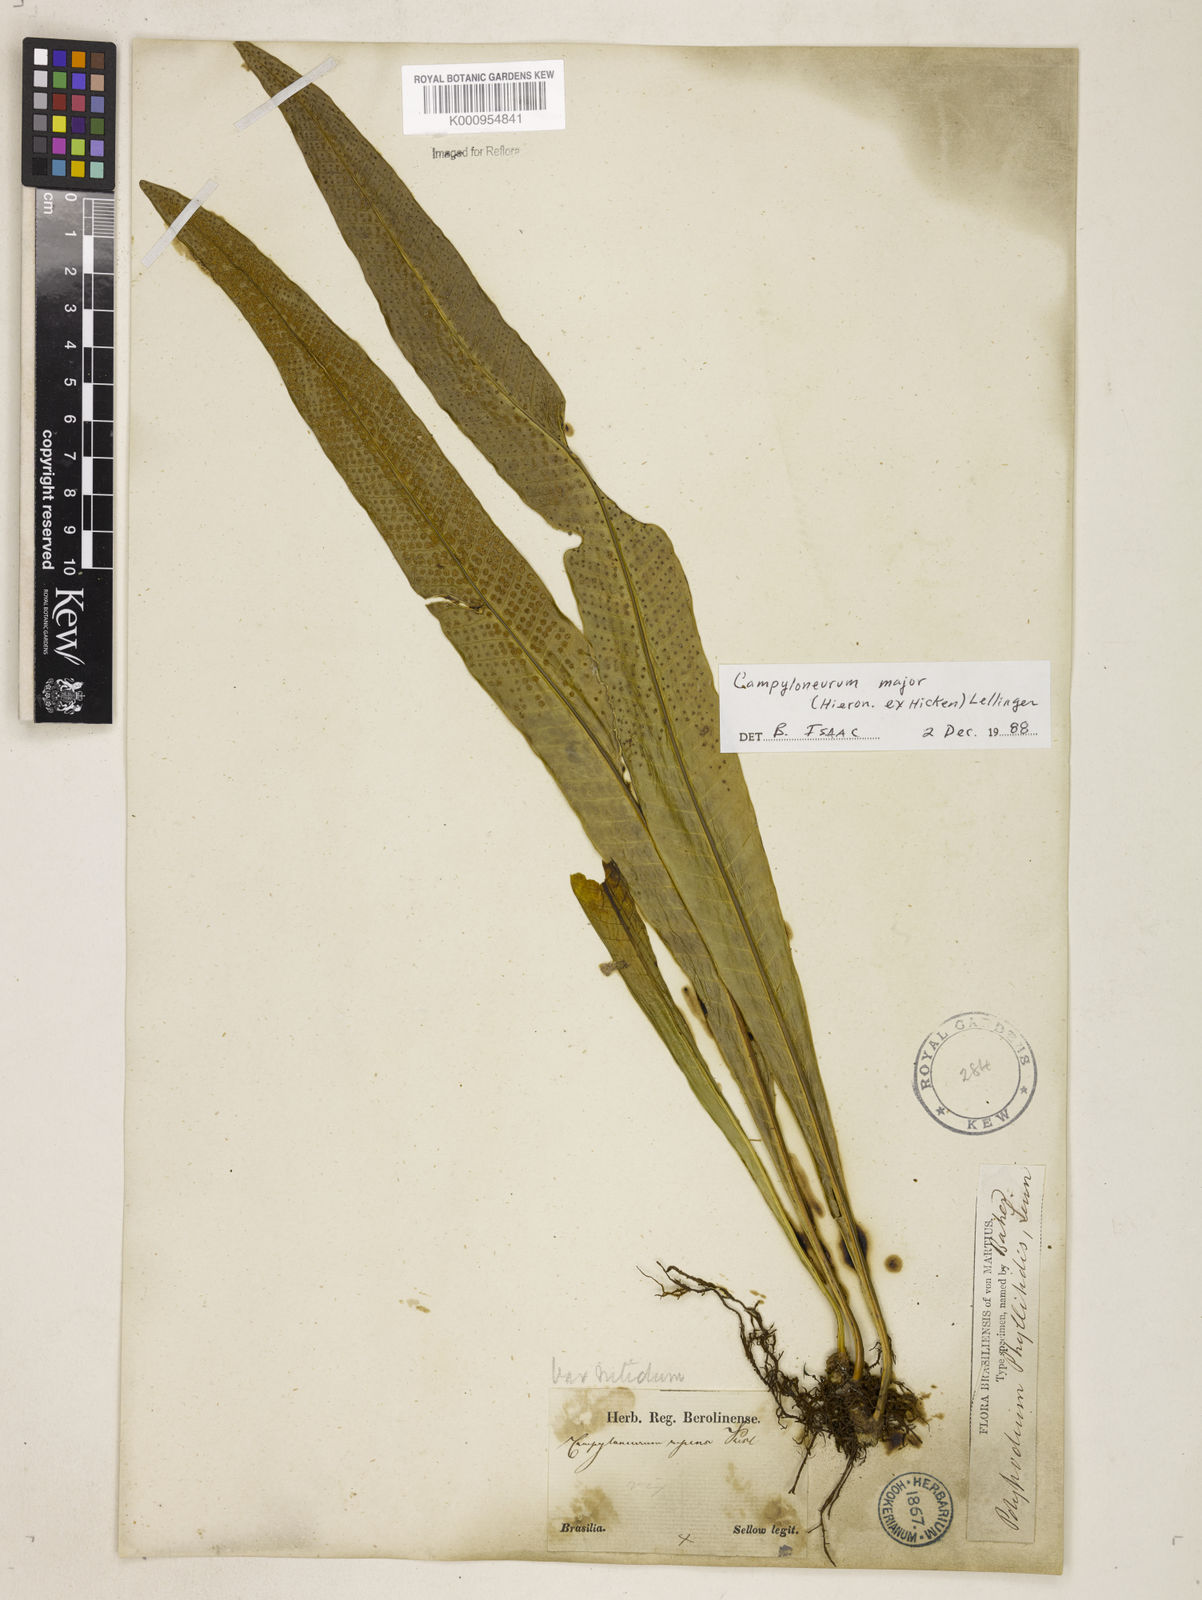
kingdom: Plantae
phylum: Tracheophyta
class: Polypodiopsida
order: Polypodiales
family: Polypodiaceae
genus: Campyloneurum
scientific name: Campyloneurum majus
